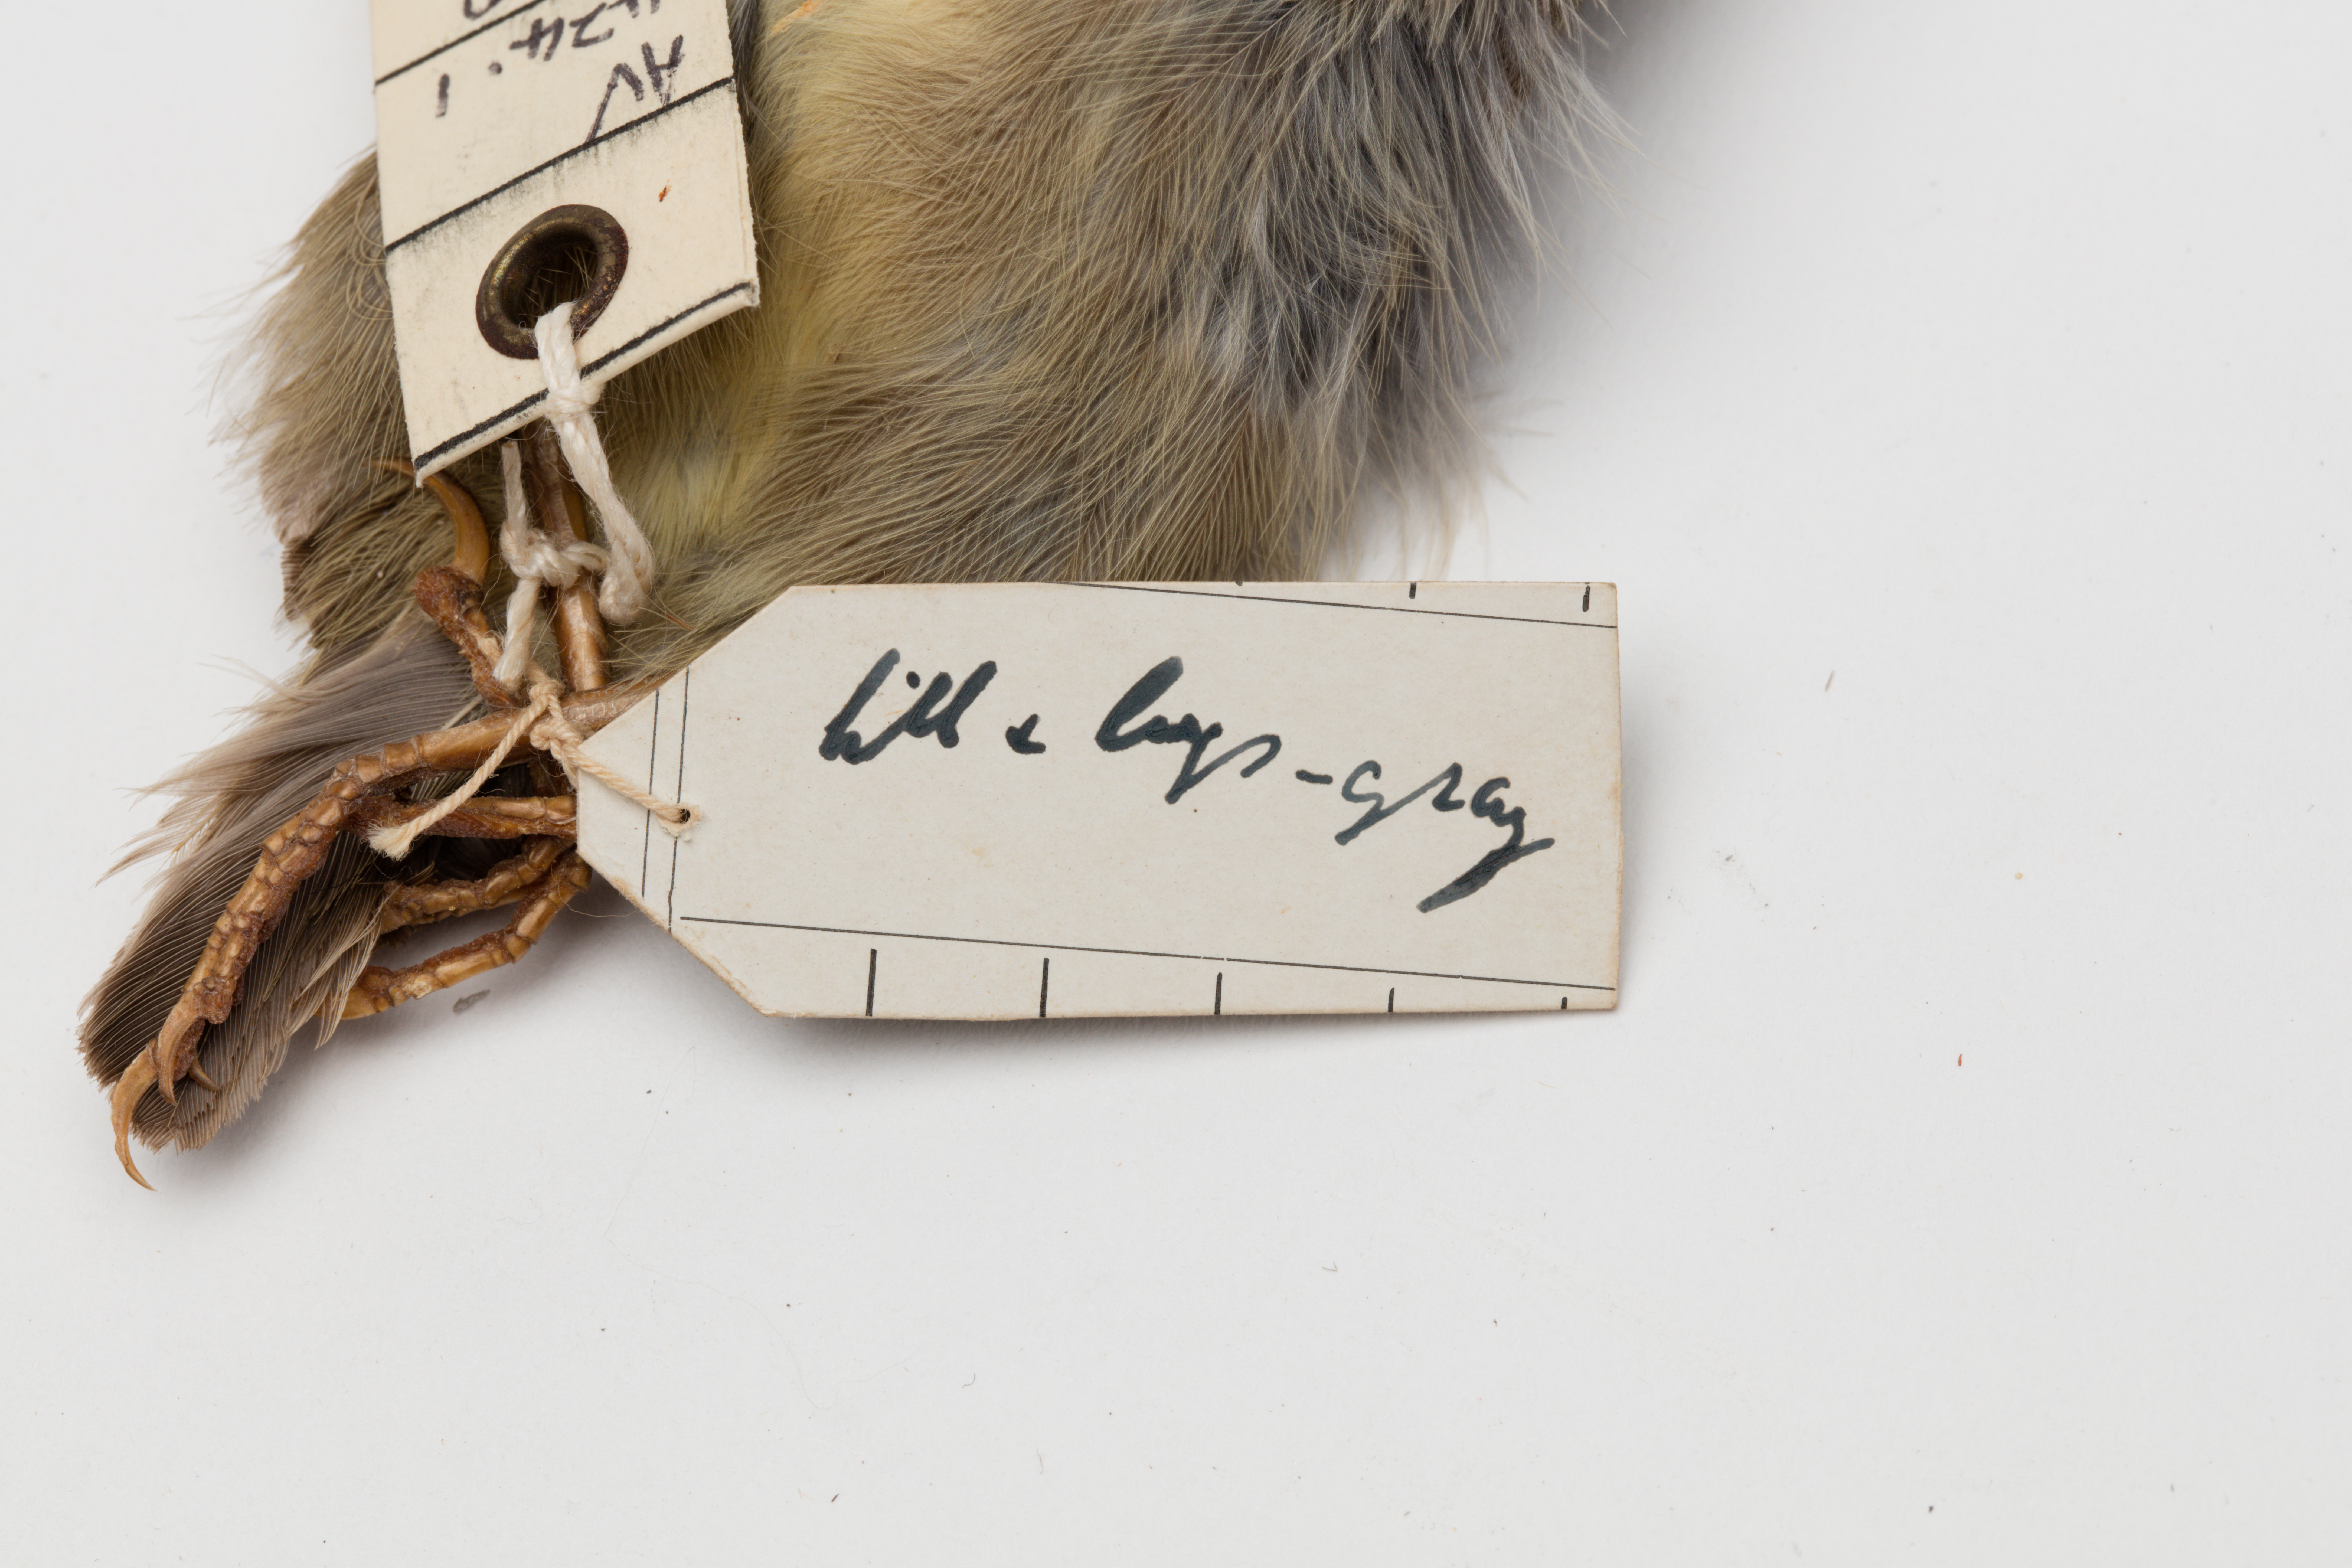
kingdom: Animalia
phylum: Chordata
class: Aves
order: Passeriformes
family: Fringillidae
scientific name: Fringillidae
